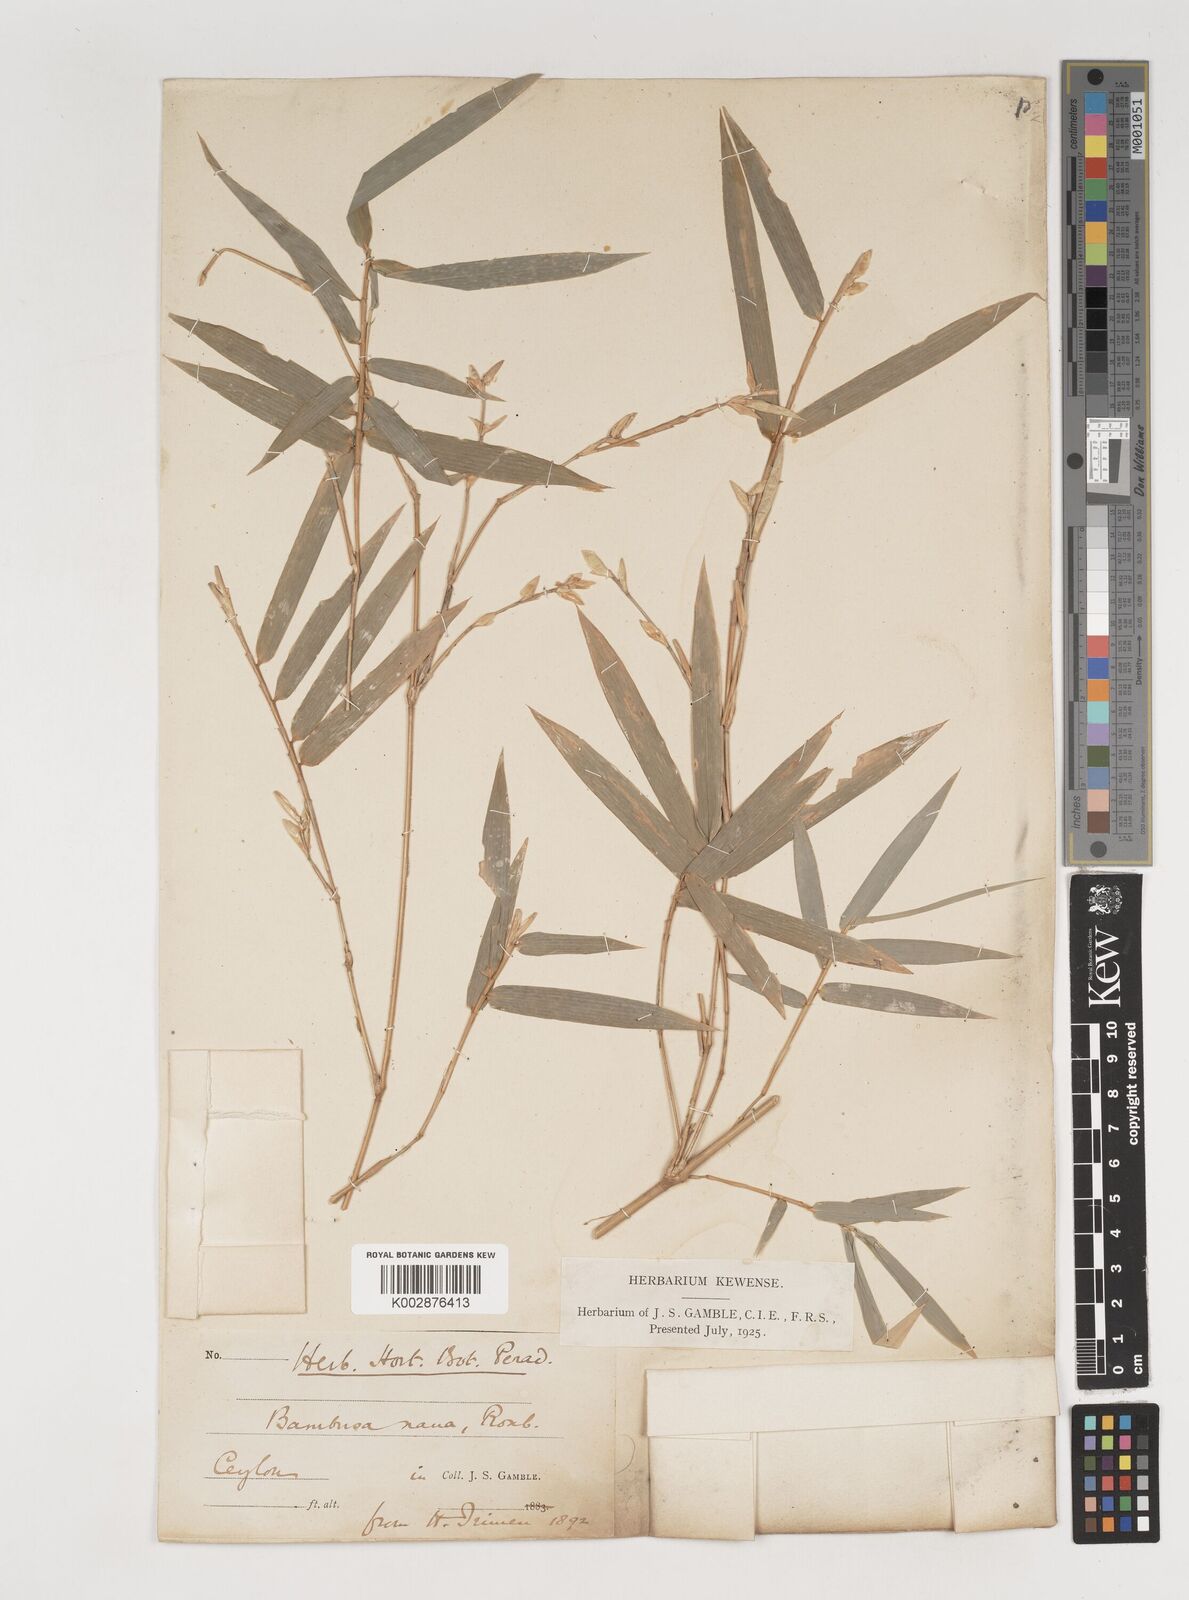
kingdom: Plantae
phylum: Tracheophyta
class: Liliopsida
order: Poales
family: Poaceae
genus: Bambusa
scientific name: Bambusa multiplex
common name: Hedge bamboo
